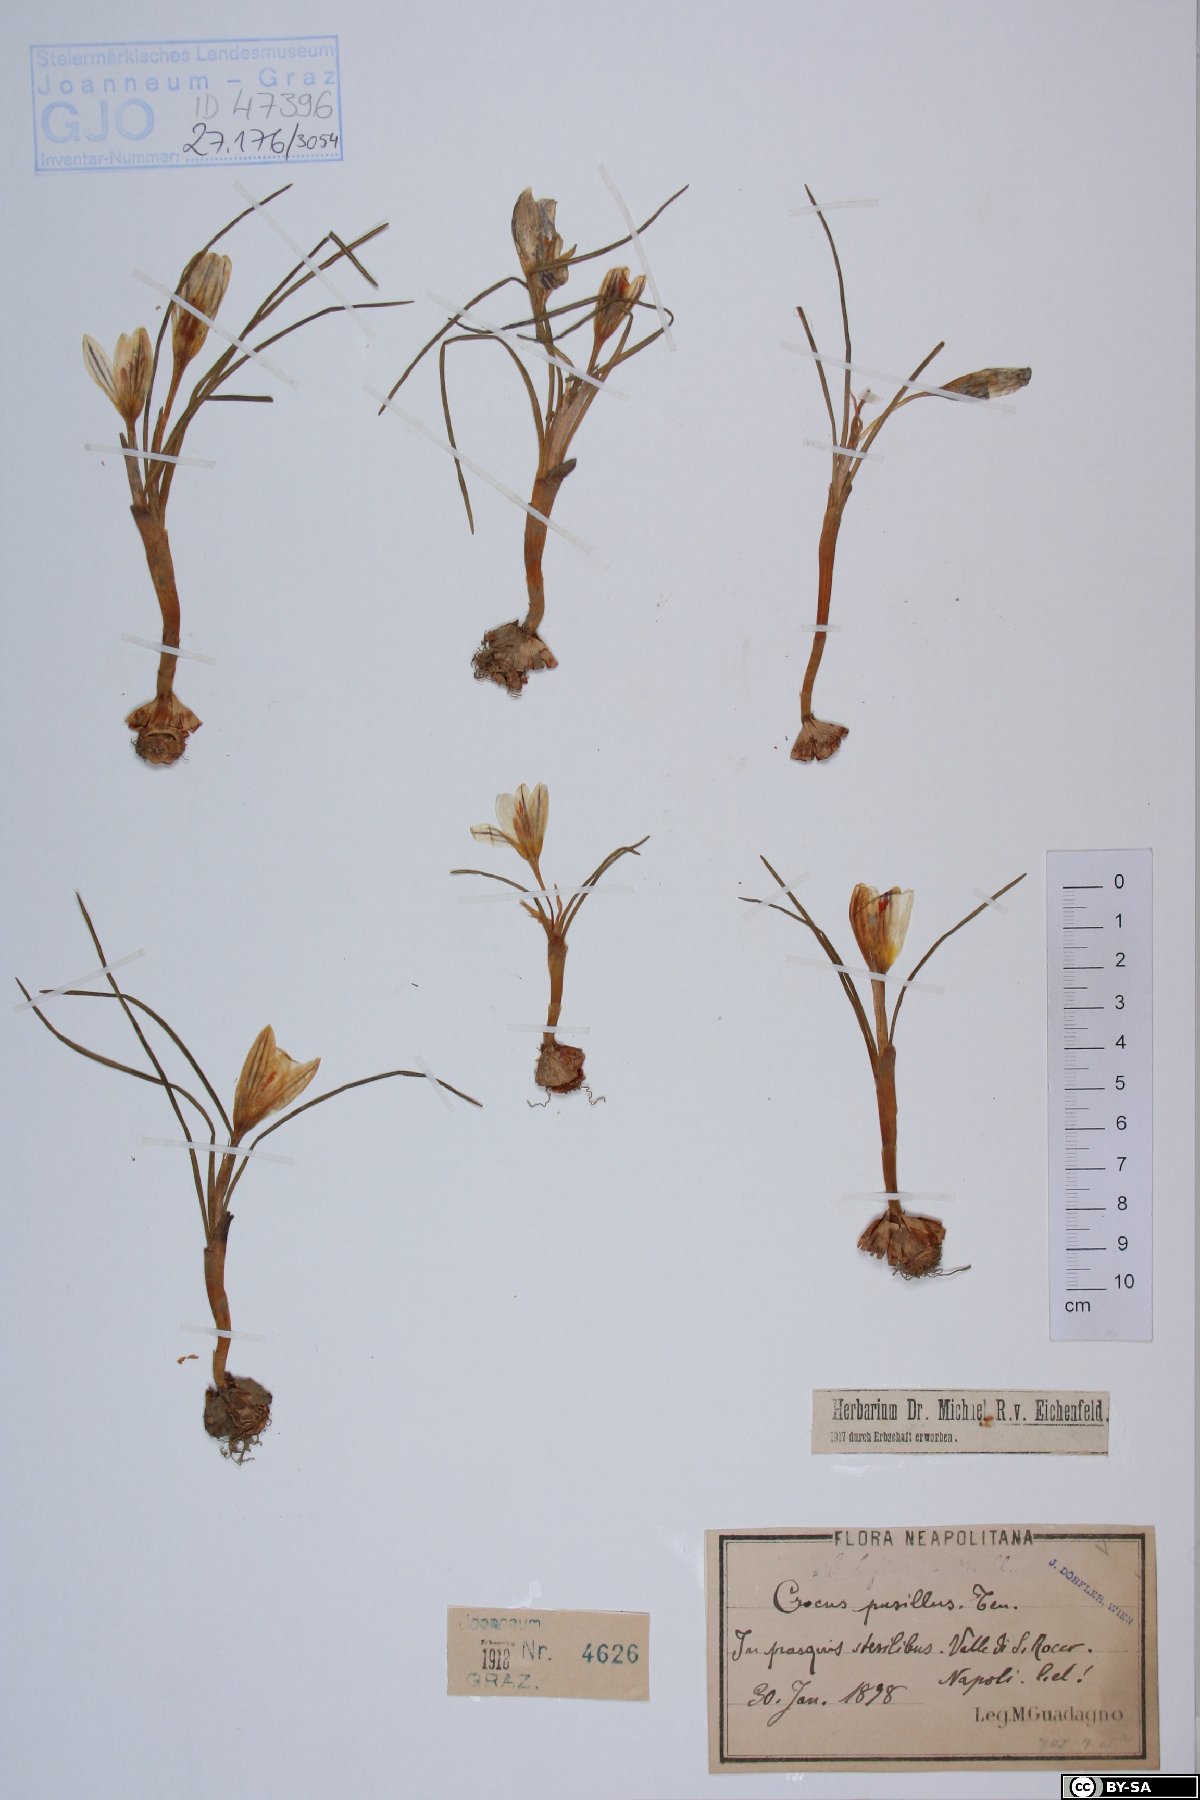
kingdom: Plantae
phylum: Tracheophyta
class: Liliopsida
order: Asparagales
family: Iridaceae
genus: Crocus
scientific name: Crocus biflorus
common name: Silvery crocus
